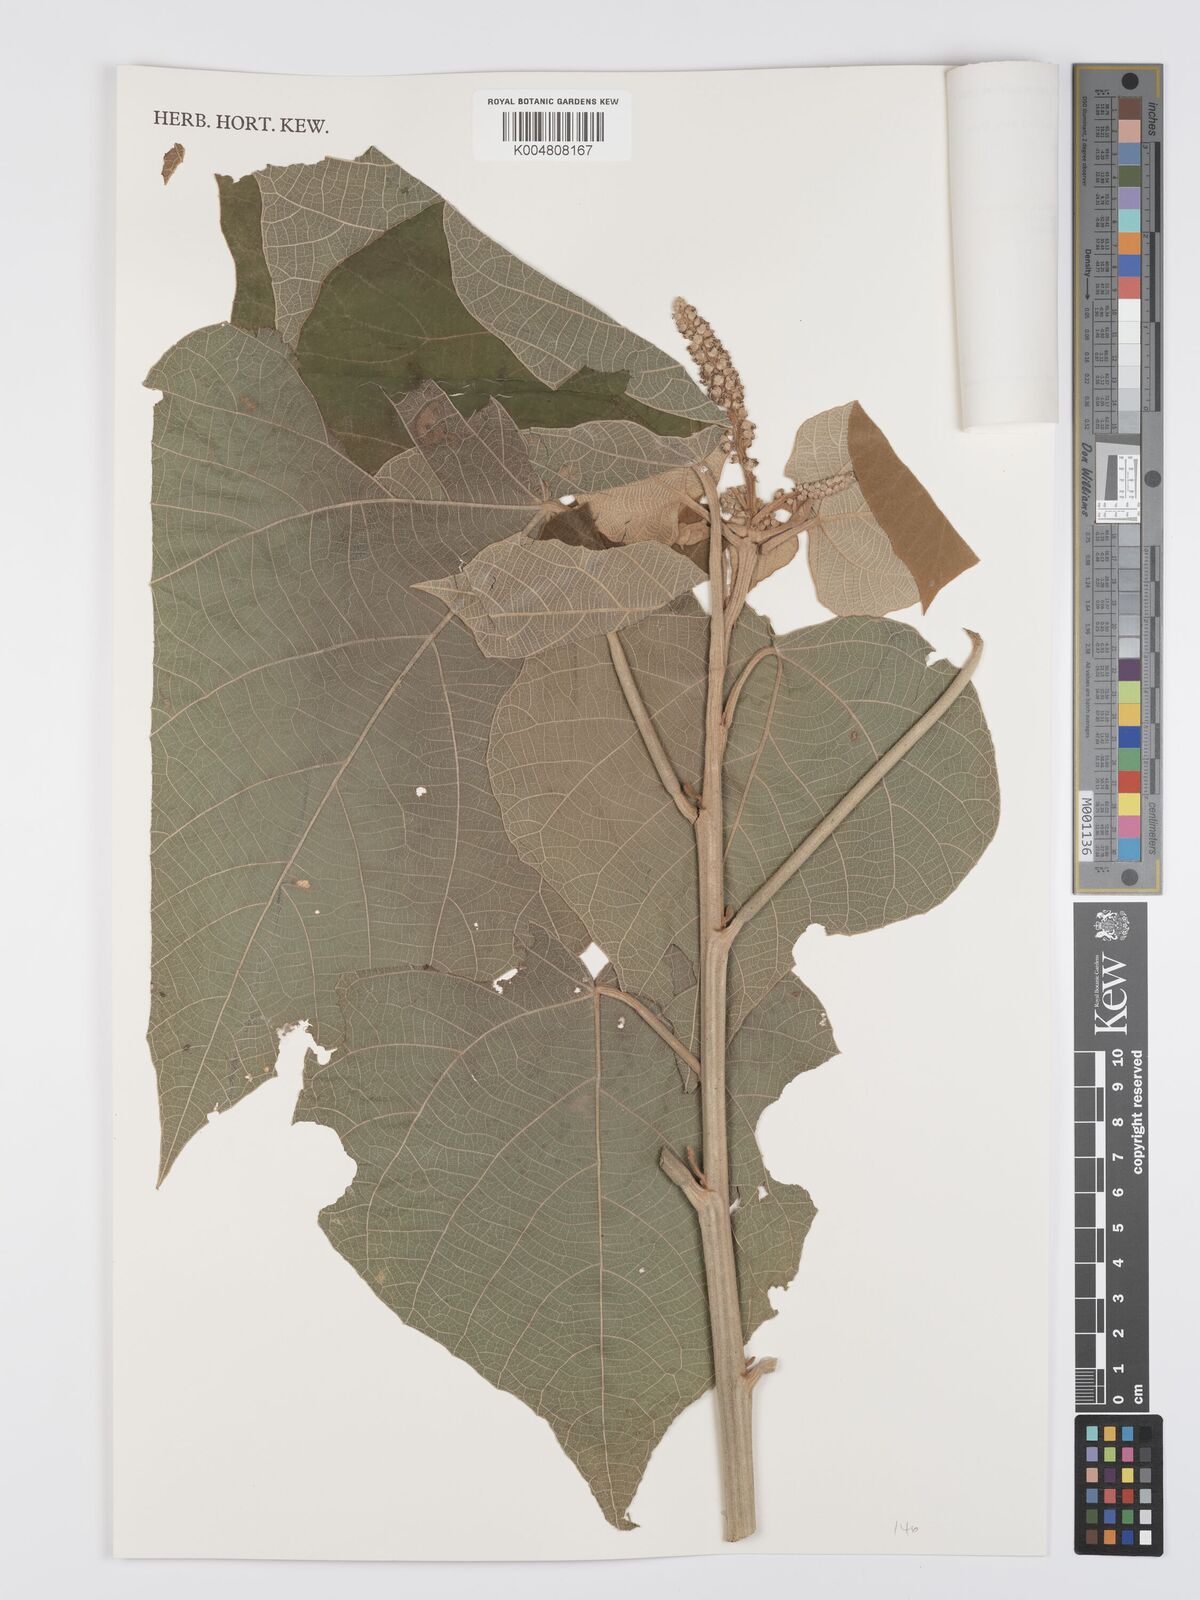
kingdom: Plantae
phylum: Tracheophyta
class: Magnoliopsida
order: Malpighiales
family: Euphorbiaceae
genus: Mallotus
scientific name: Mallotus mollissimus
